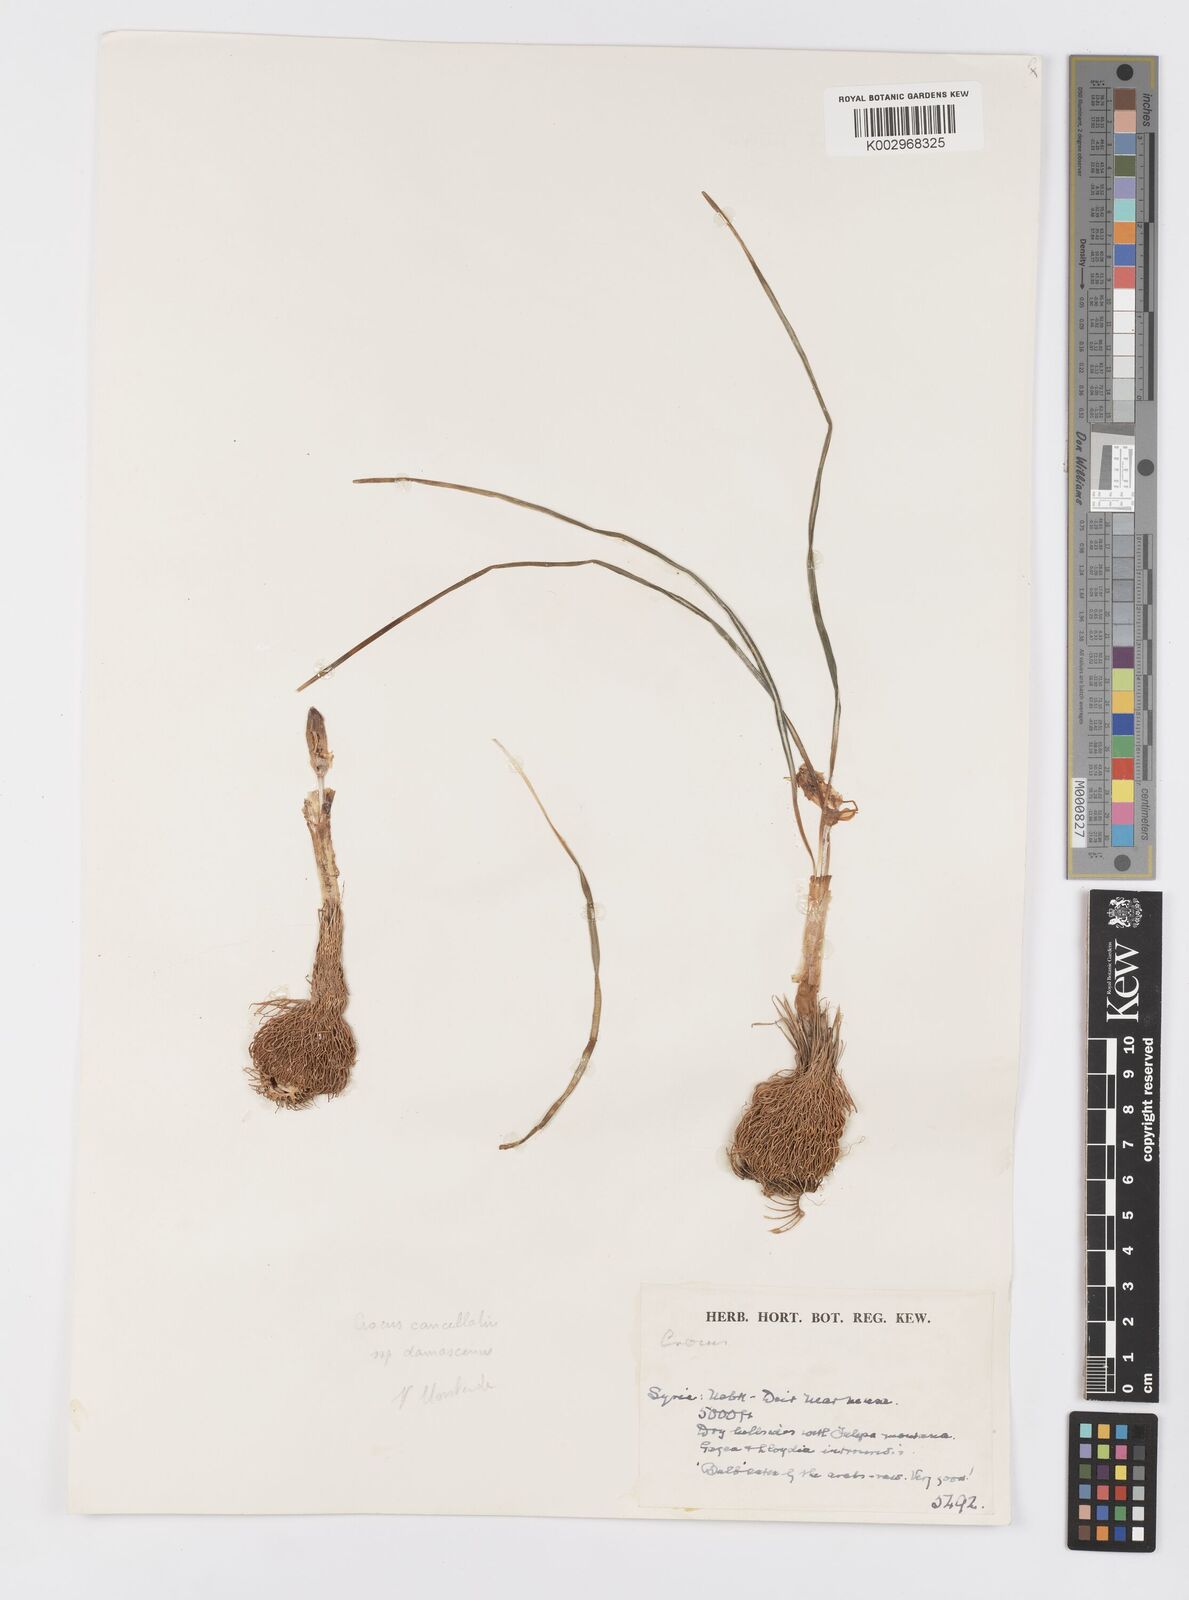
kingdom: Plantae
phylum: Tracheophyta
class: Liliopsida
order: Asparagales
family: Iridaceae
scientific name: Iridaceae
